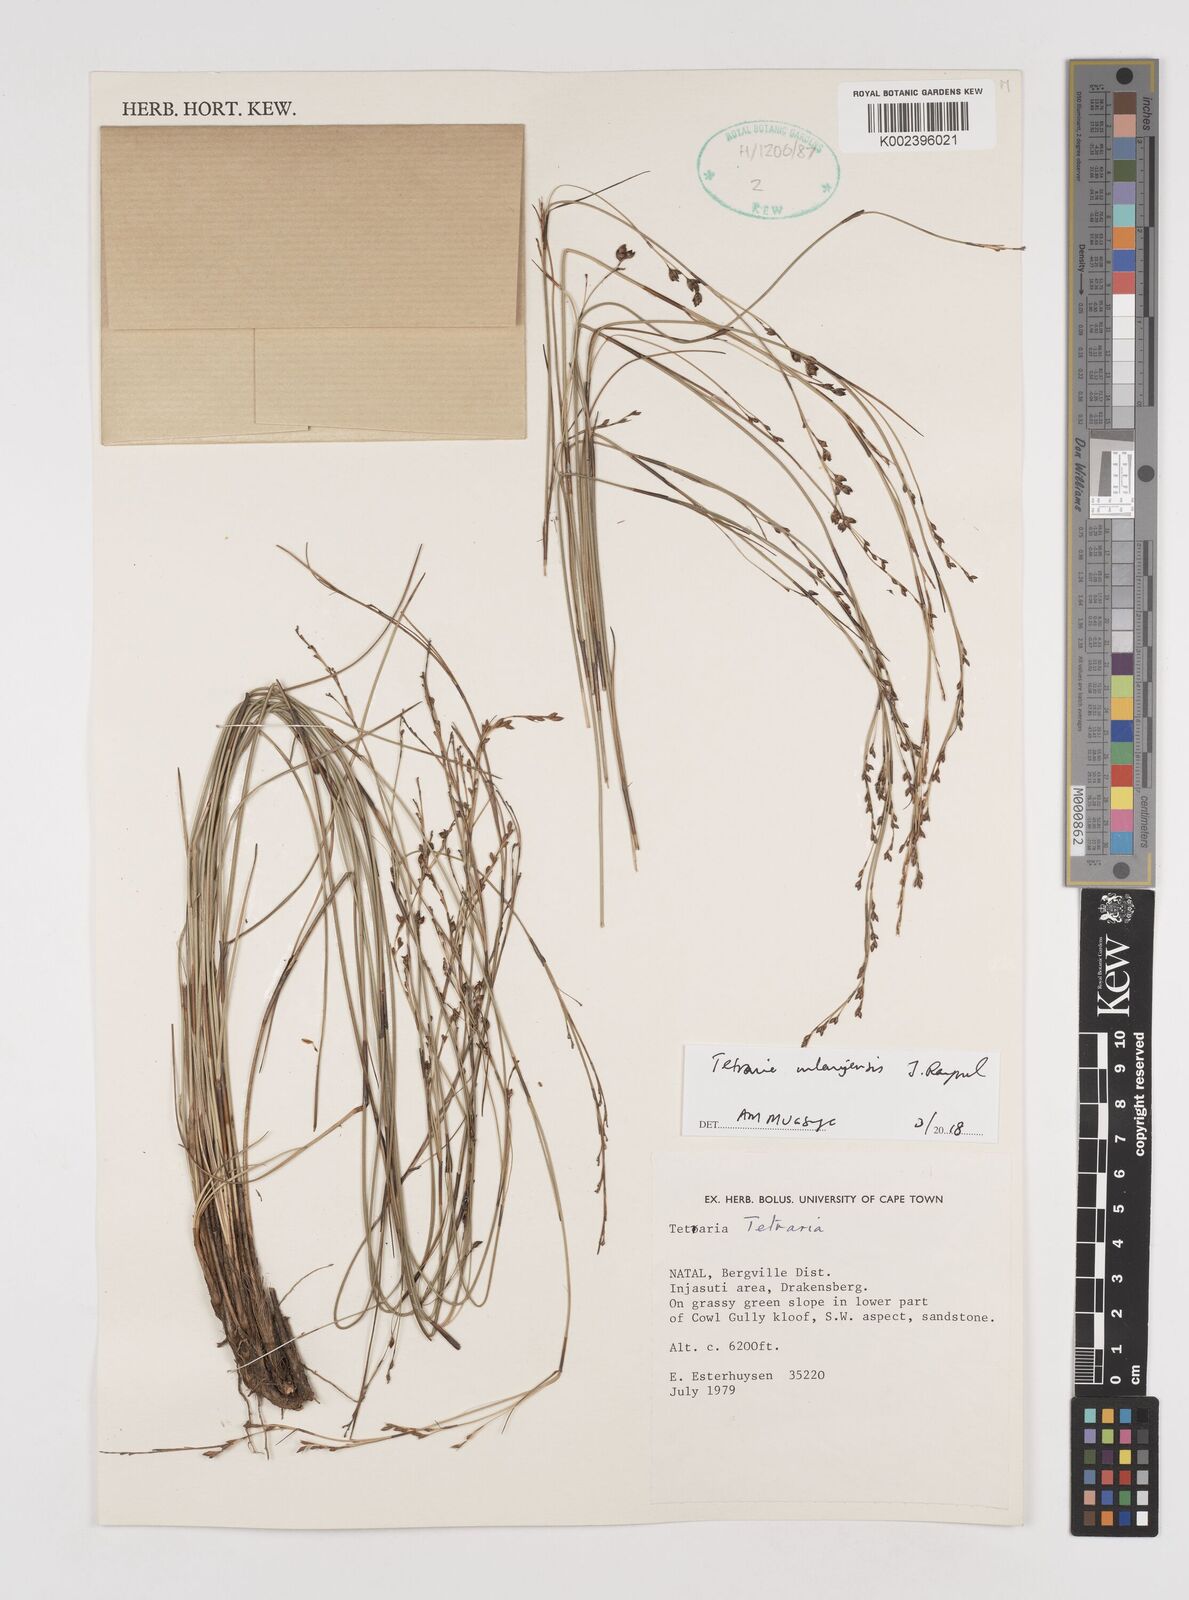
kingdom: Plantae
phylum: Tracheophyta
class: Liliopsida
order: Poales
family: Cyperaceae
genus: Tetraria
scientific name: Tetraria mlanjensis
